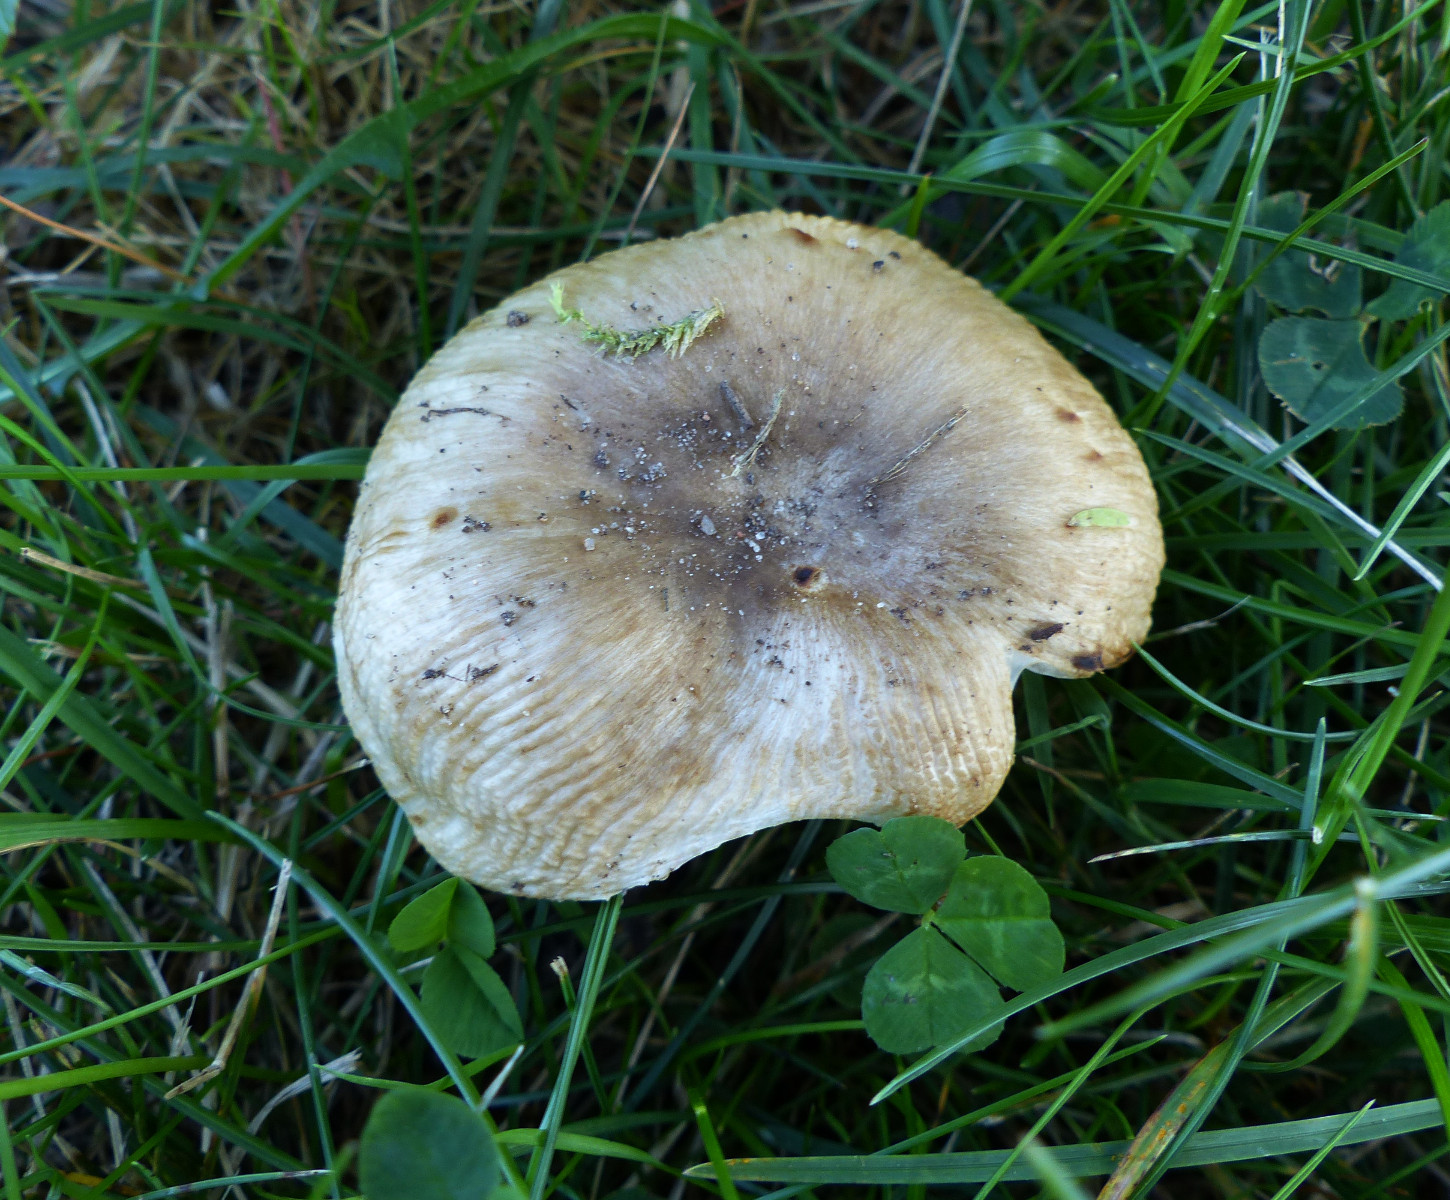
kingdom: Fungi
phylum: Basidiomycota
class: Agaricomycetes
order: Russulales
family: Russulaceae
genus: Russula
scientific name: Russula recondita
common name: mild kam-skørhat
